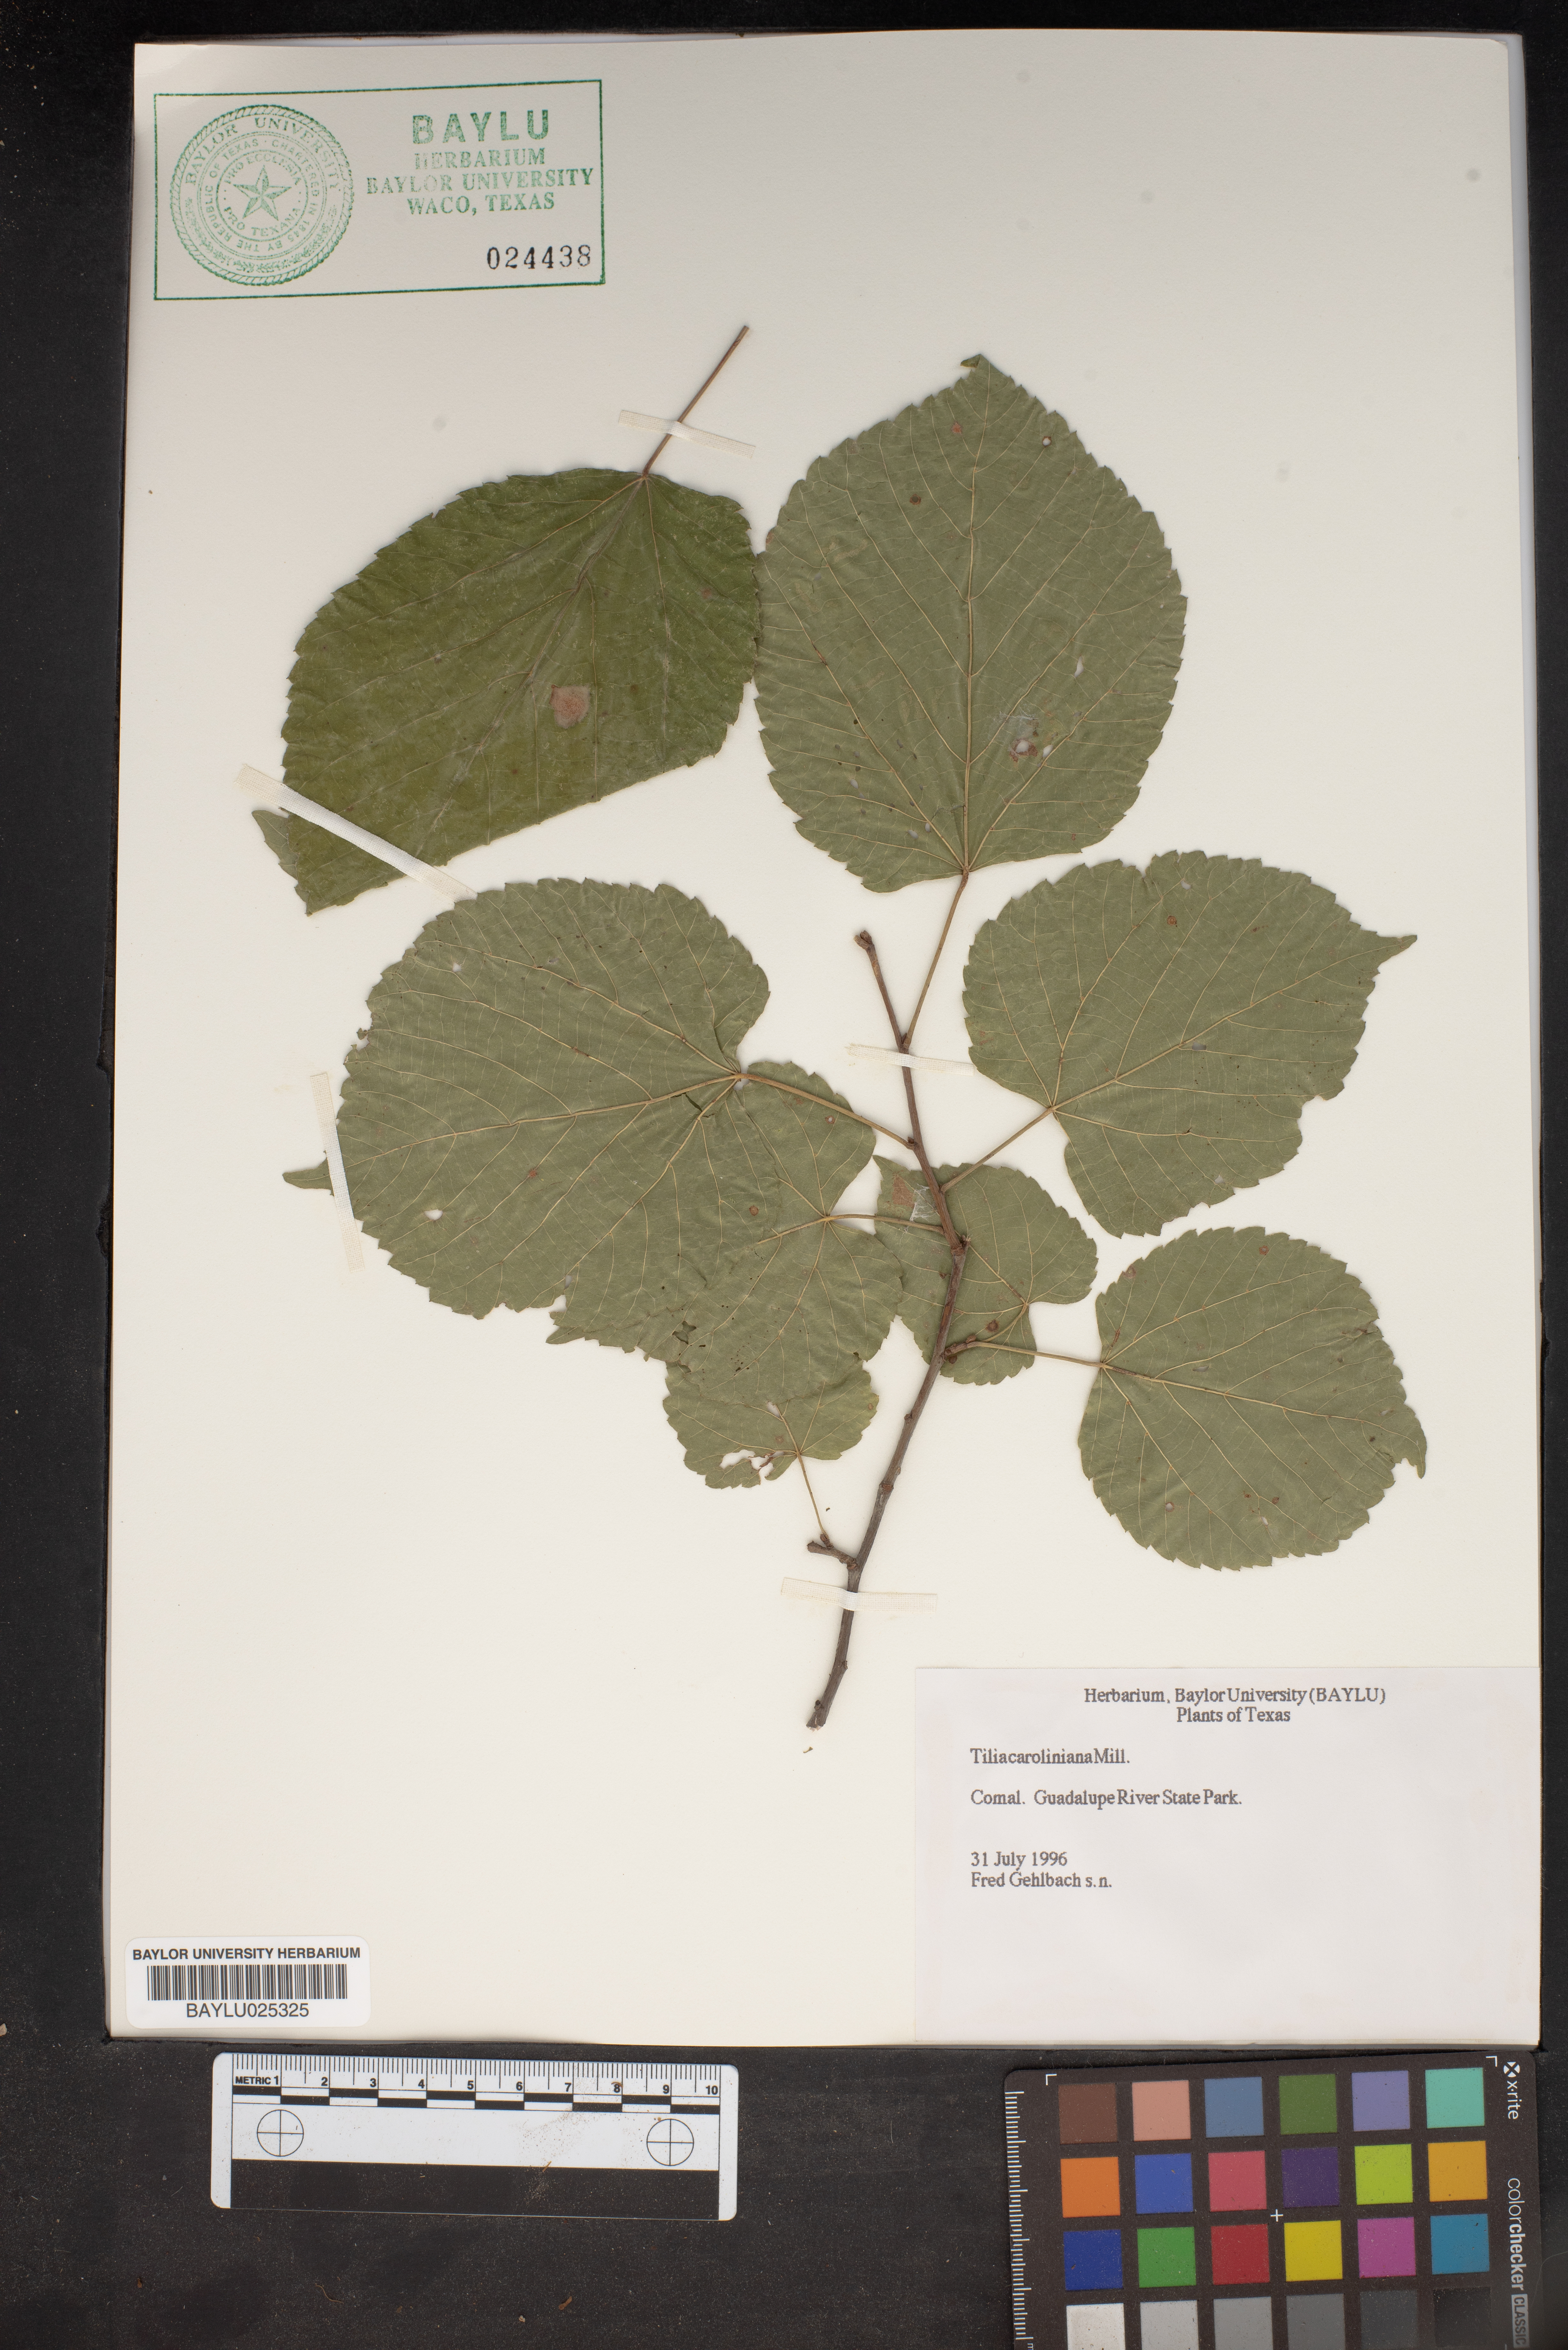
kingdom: Plantae
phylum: Tracheophyta
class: Magnoliopsida
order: Malvales
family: Malvaceae
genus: Tilia
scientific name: Tilia americana
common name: Basswood
